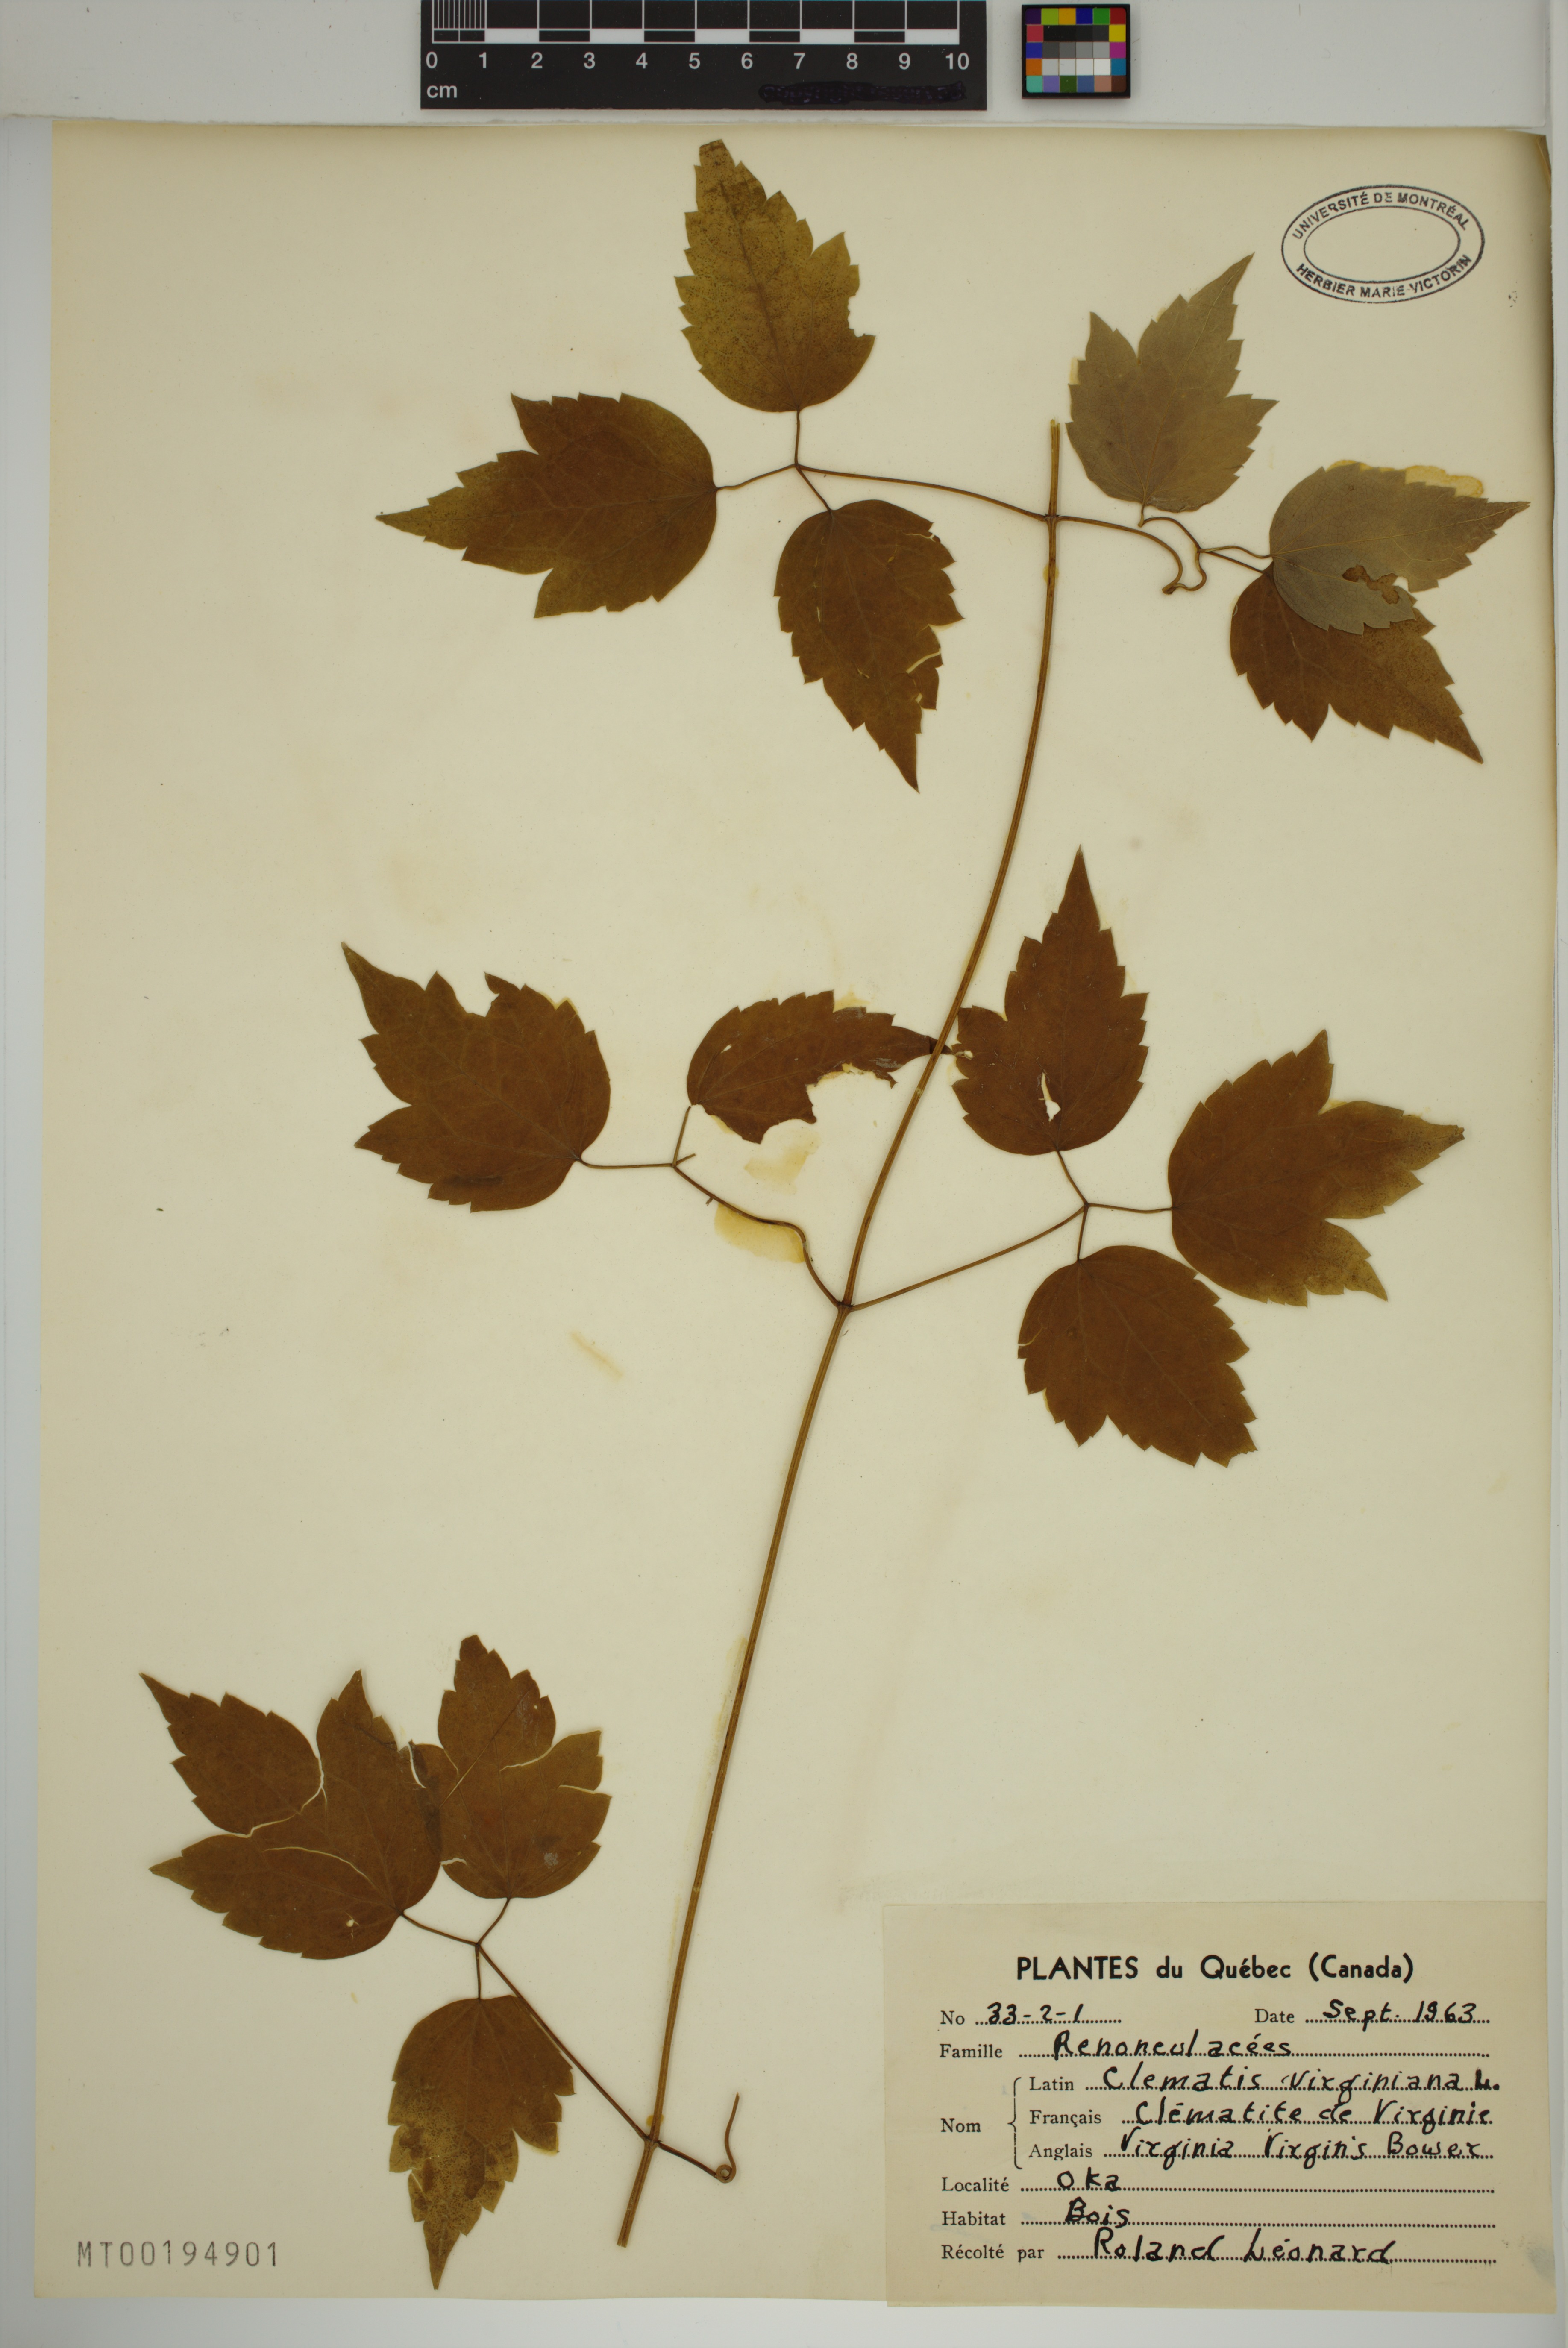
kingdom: Plantae
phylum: Tracheophyta
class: Magnoliopsida
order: Ranunculales
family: Ranunculaceae
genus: Clematis
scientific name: Clematis virginiana
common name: Virgin's-bower
